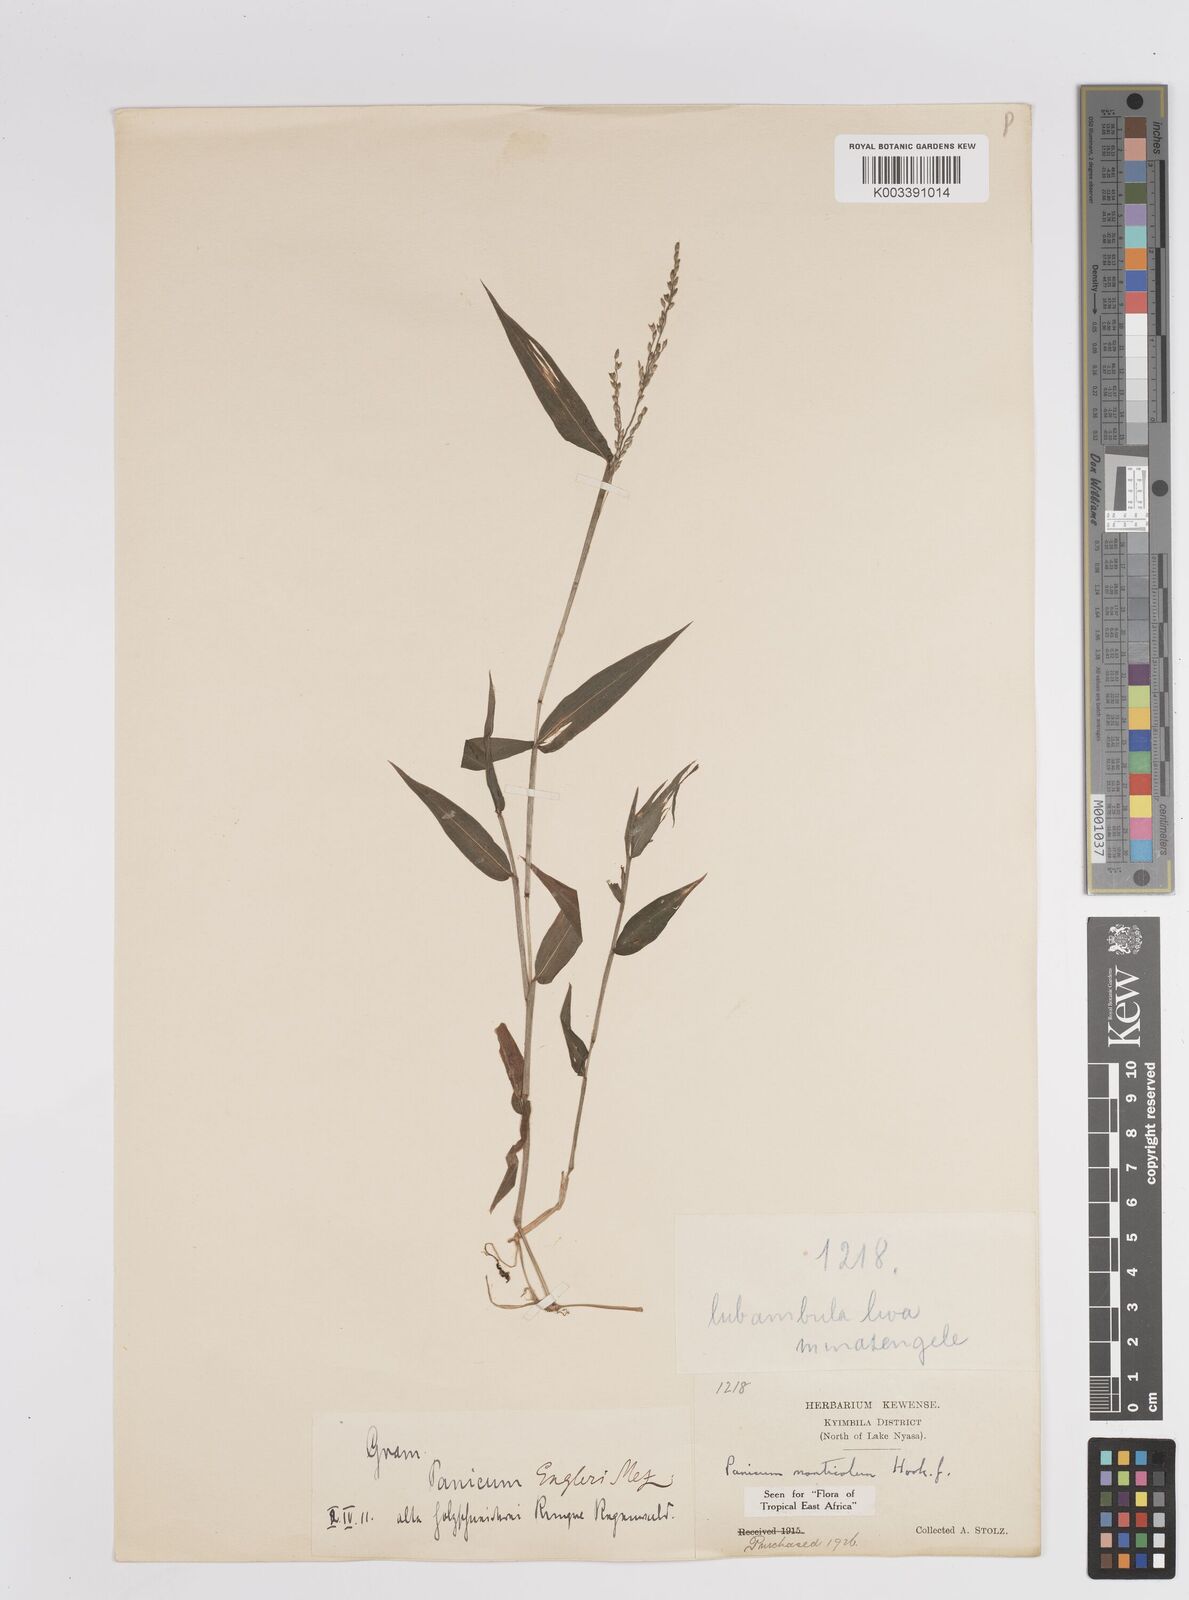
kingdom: Plantae
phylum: Tracheophyta
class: Liliopsida
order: Poales
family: Poaceae
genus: Panicum
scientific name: Panicum monticola
